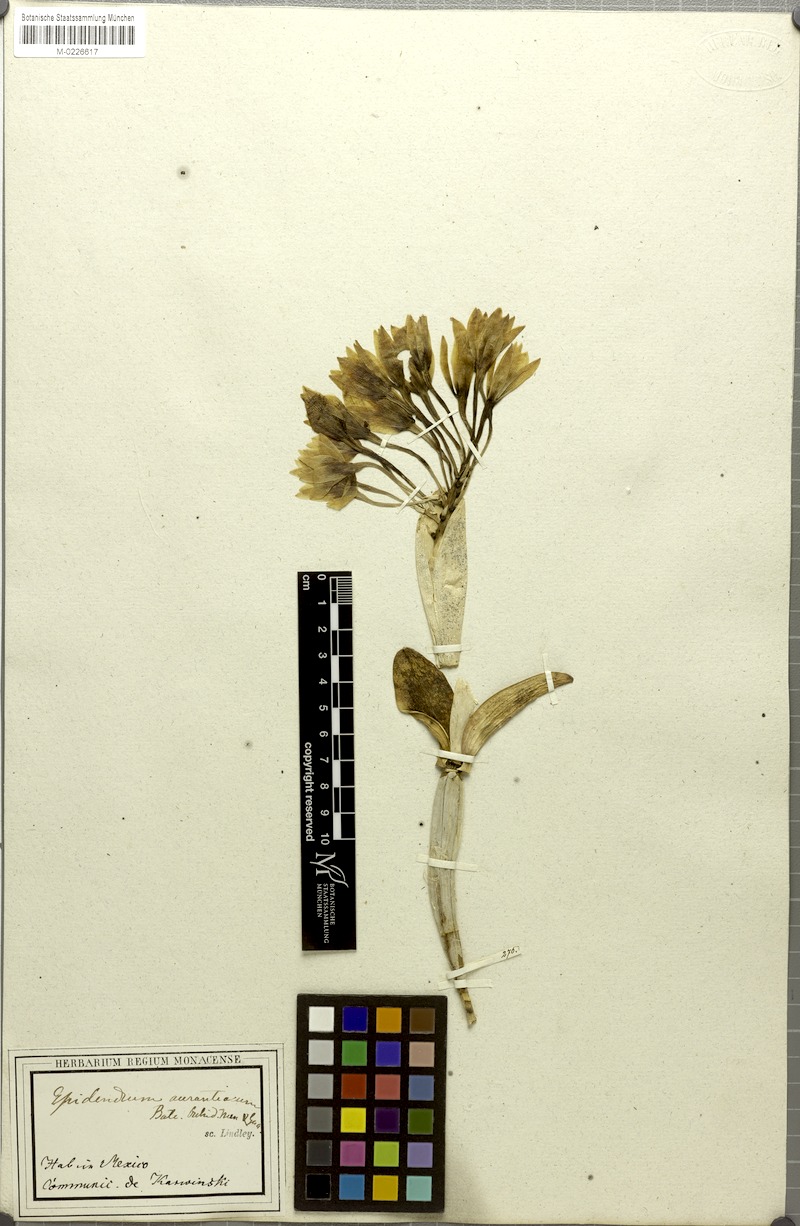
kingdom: Plantae
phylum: Tracheophyta
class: Liliopsida
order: Asparagales
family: Orchidaceae
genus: Guarianthe
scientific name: Guarianthe aurantiaca
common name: Orange cattleya
